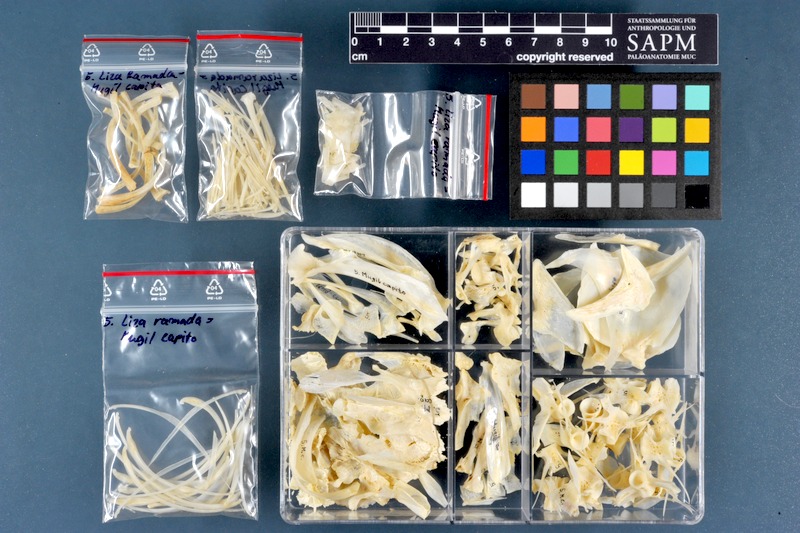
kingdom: Animalia
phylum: Chordata
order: Mugiliformes
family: Mugilidae
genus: Chelon
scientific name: Chelon ramada
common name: Thinlip grey mullet
